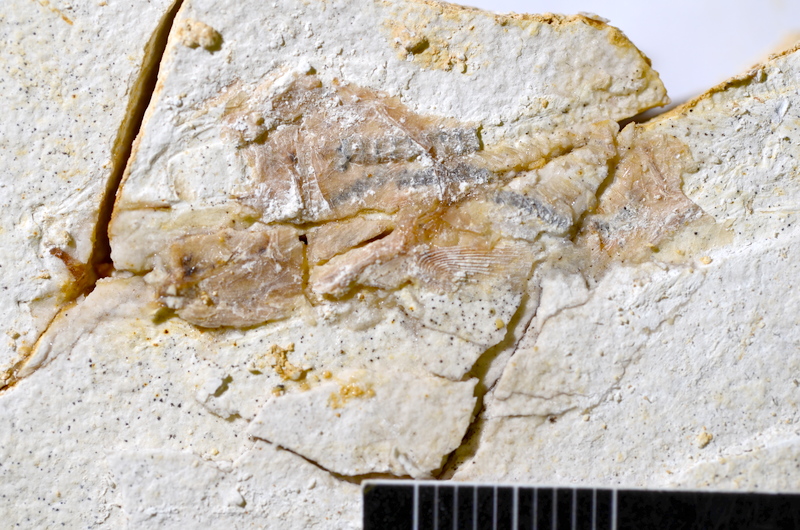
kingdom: Animalia
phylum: Chordata
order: Salmoniformes
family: Orthogonikleithridae
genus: Orthogonikleithrus
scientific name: Orthogonikleithrus hoelli
